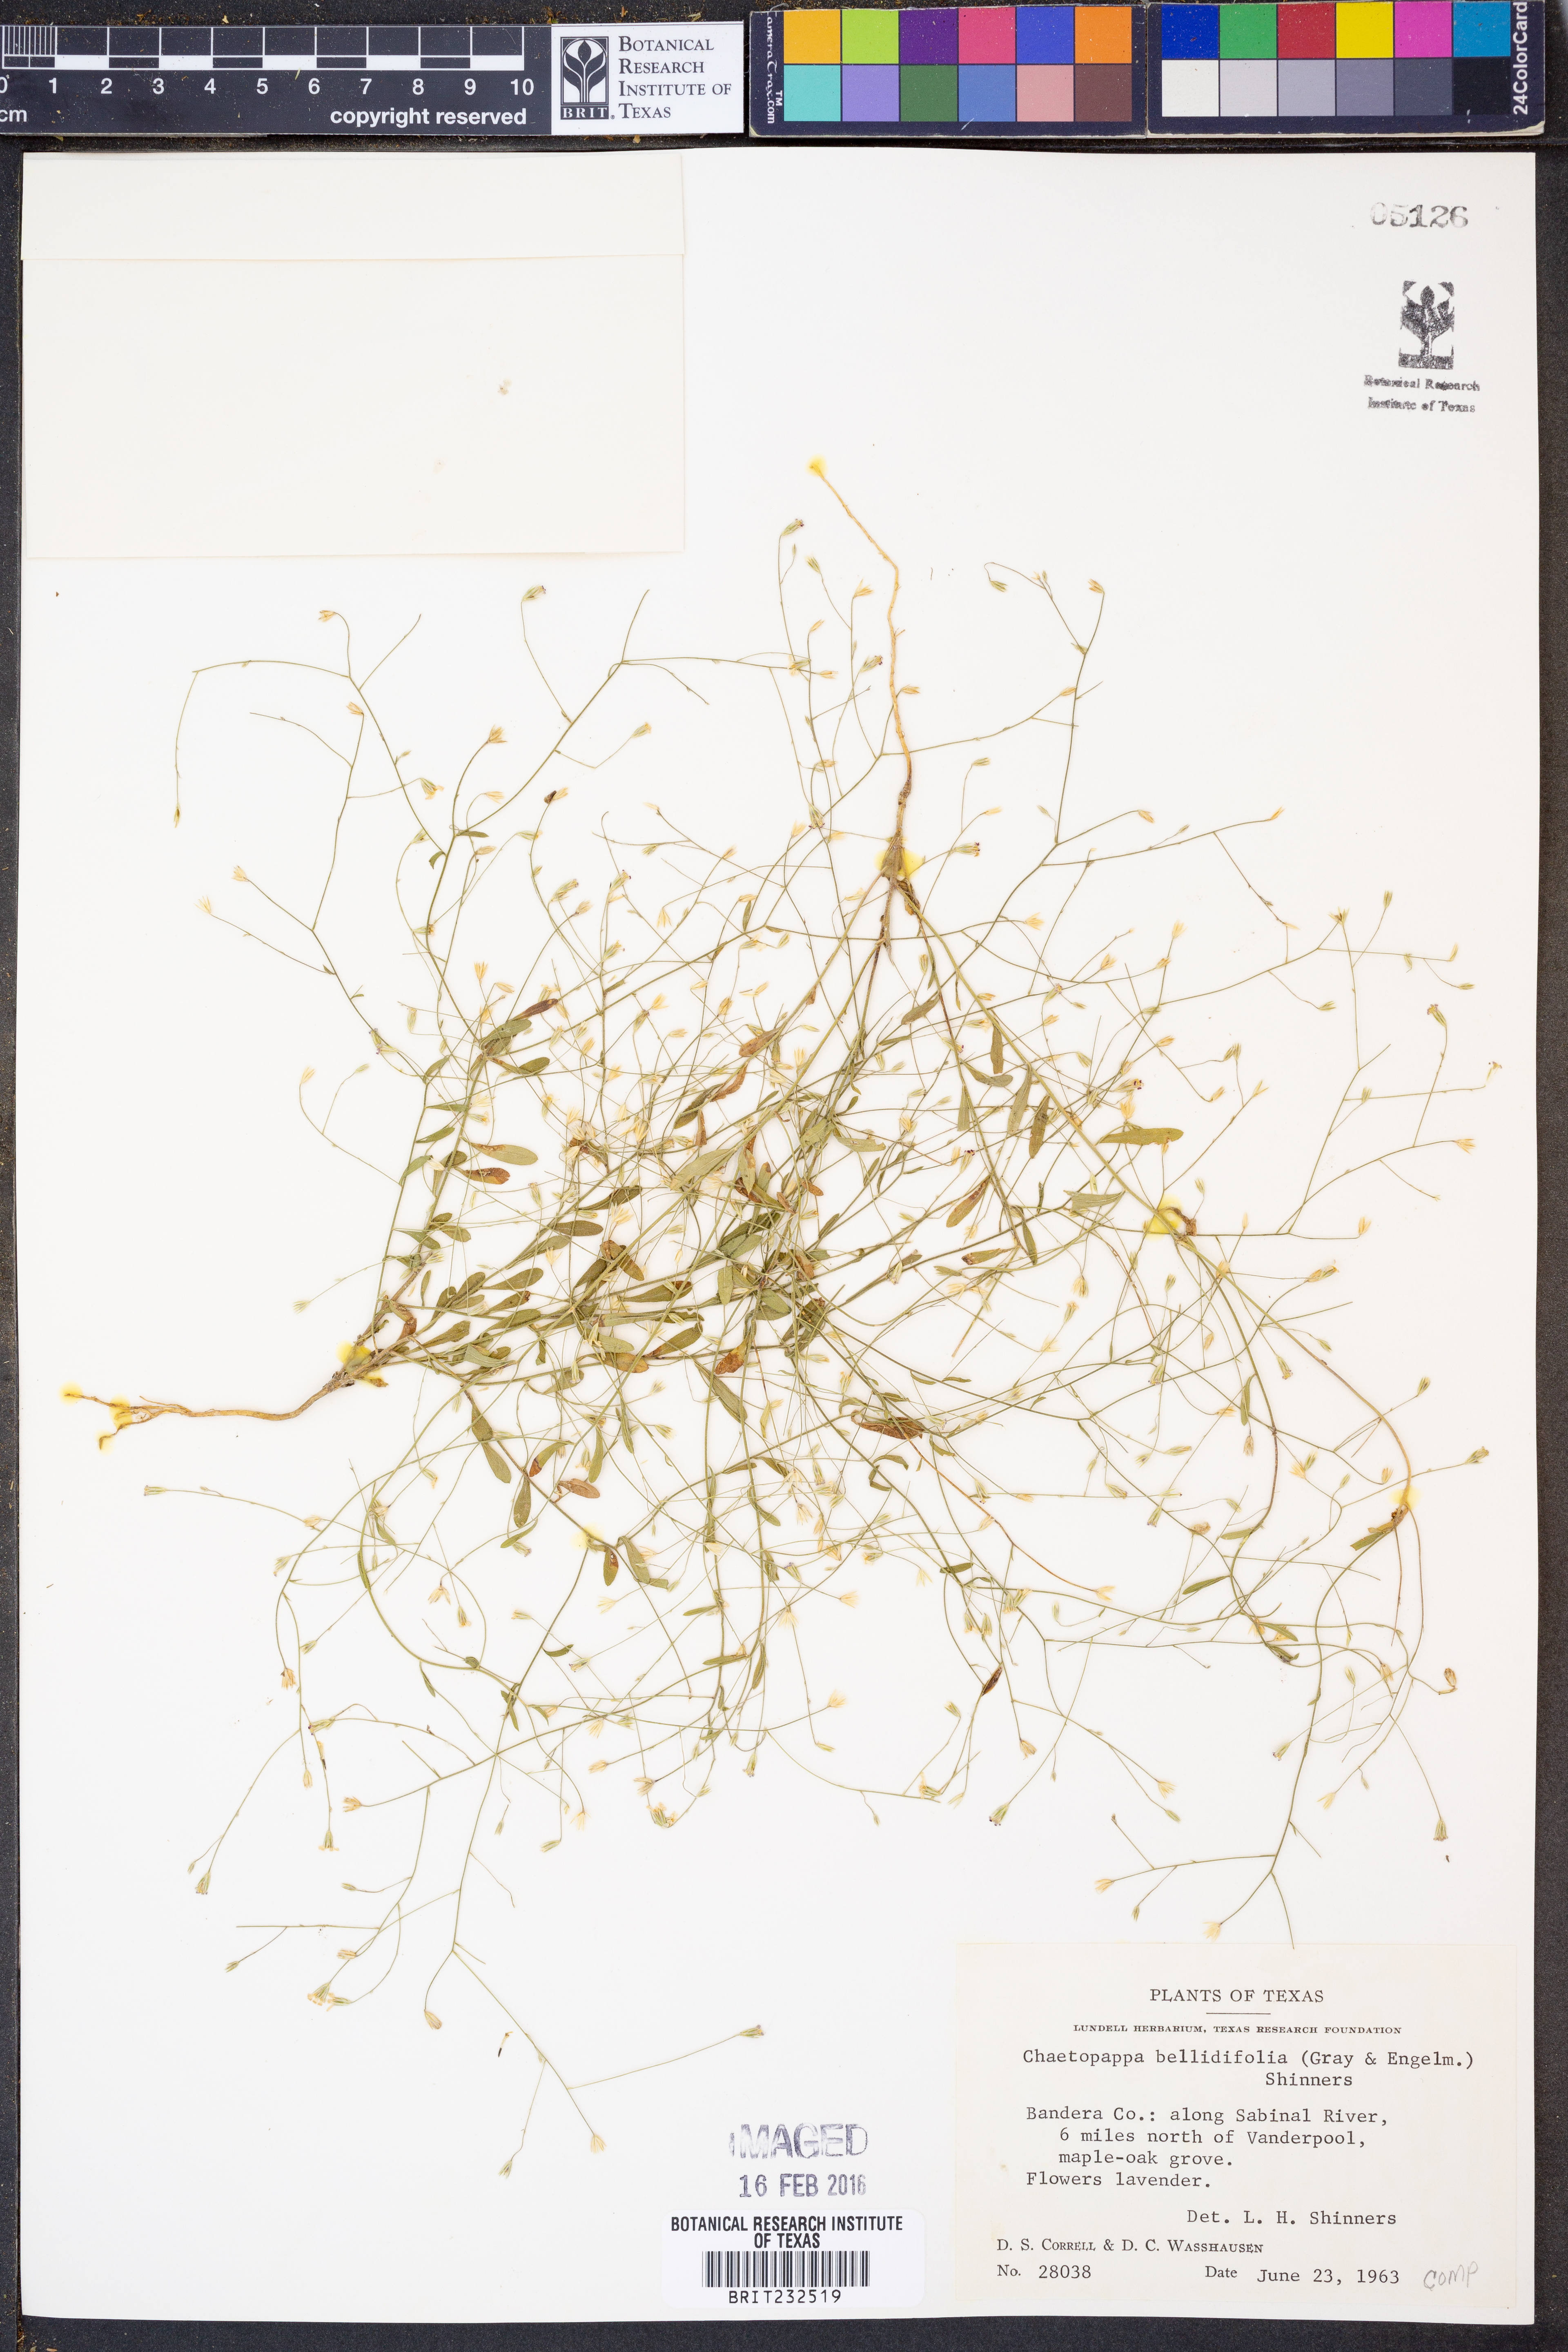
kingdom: Plantae
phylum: Tracheophyta
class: Magnoliopsida
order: Asterales
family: Asteraceae
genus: Chaetopappa
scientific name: Chaetopappa bellidifolia
